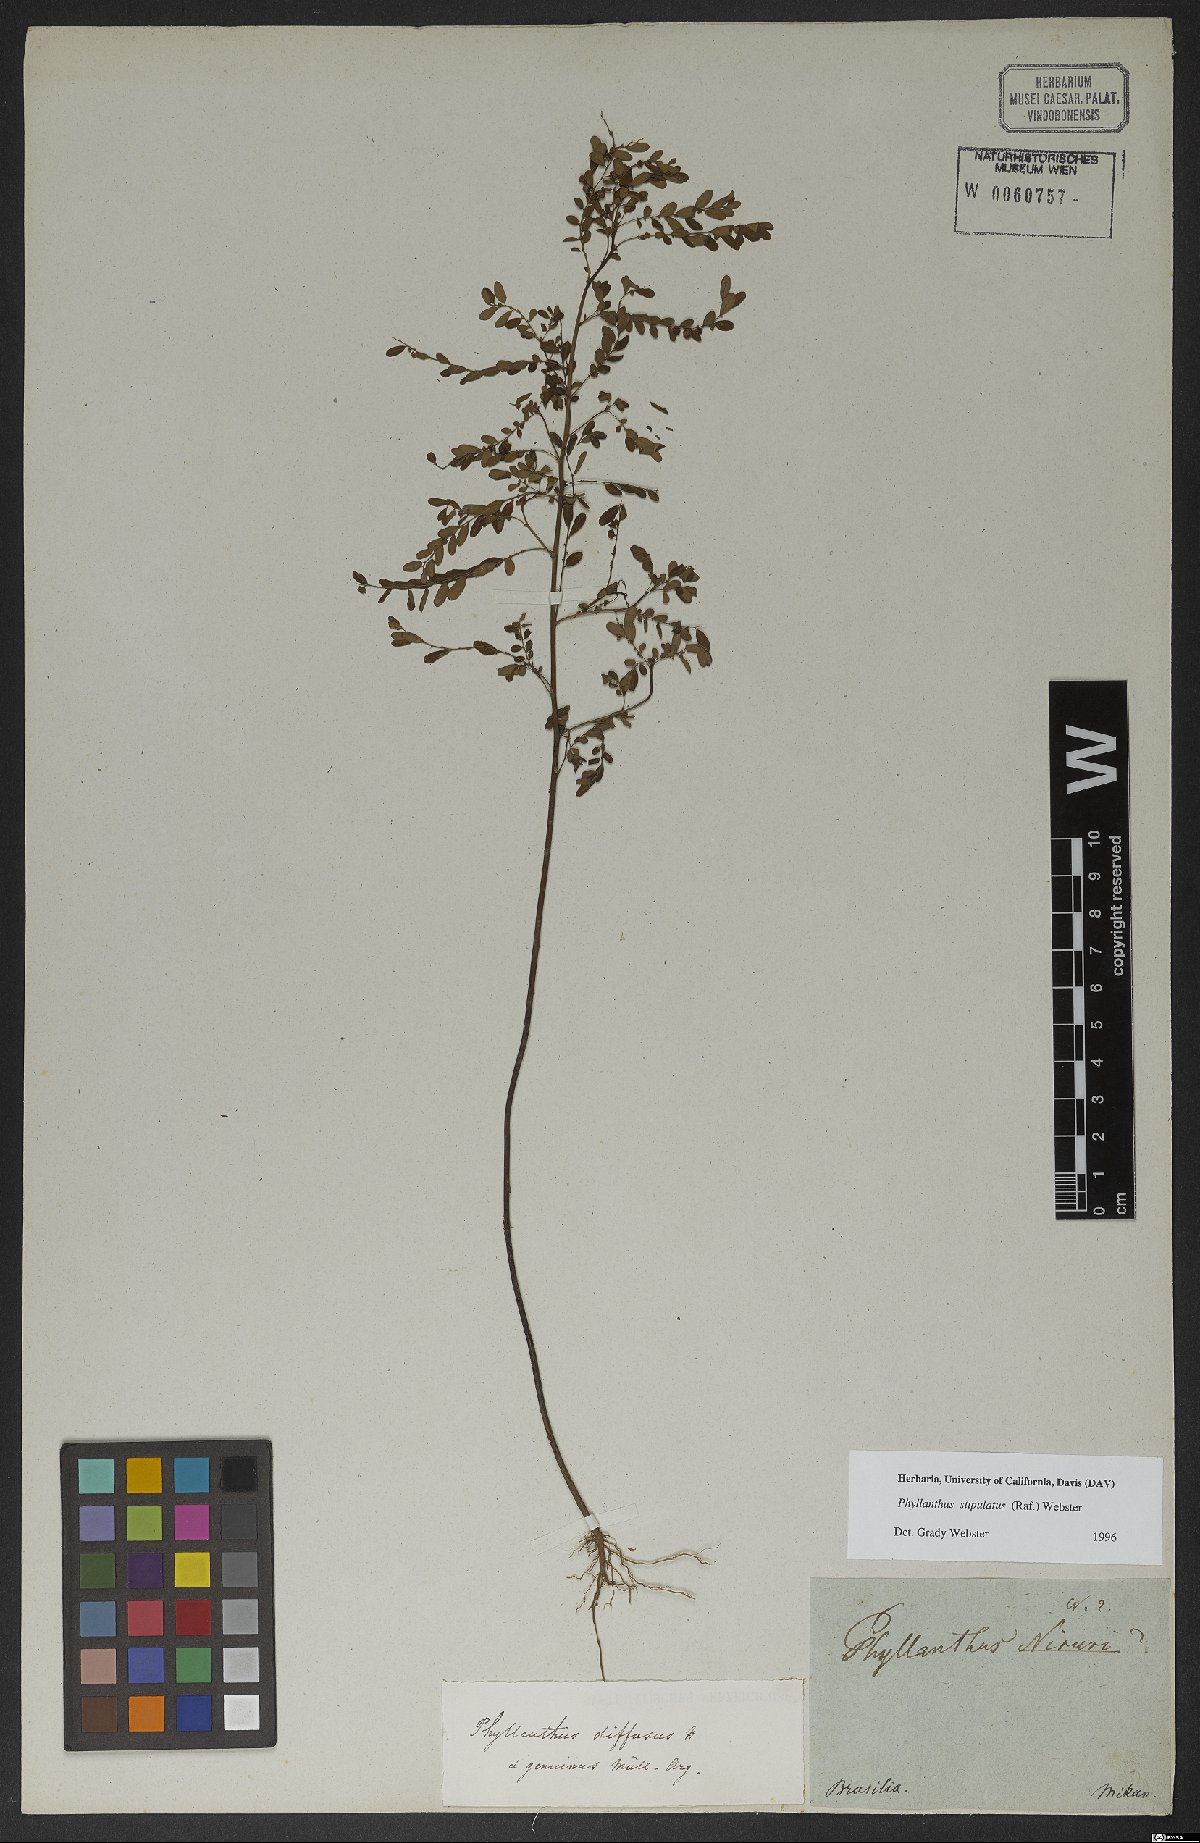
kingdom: Plantae
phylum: Tracheophyta
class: Magnoliopsida
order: Malpighiales
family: Phyllanthaceae
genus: Phyllanthus
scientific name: Phyllanthus stipulatus
